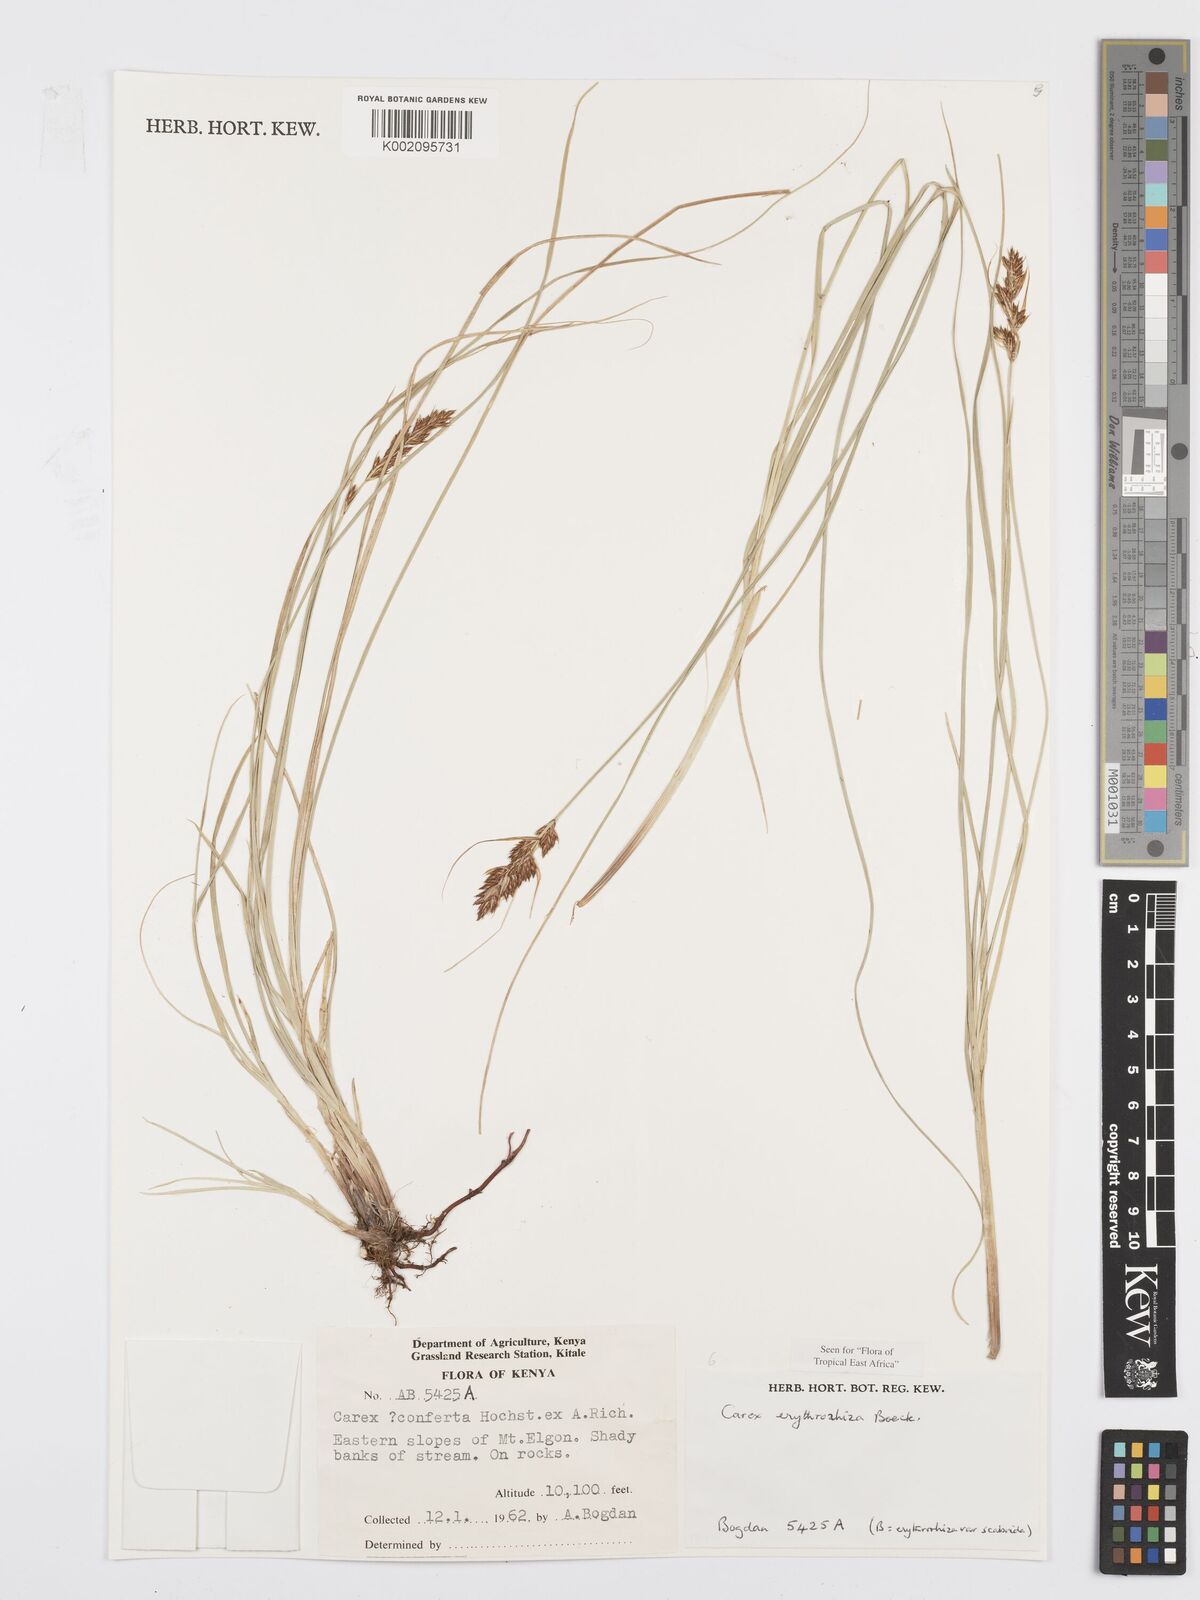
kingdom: Plantae
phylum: Tracheophyta
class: Liliopsida
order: Poales
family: Cyperaceae
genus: Carex
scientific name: Carex erythrorrhiza
